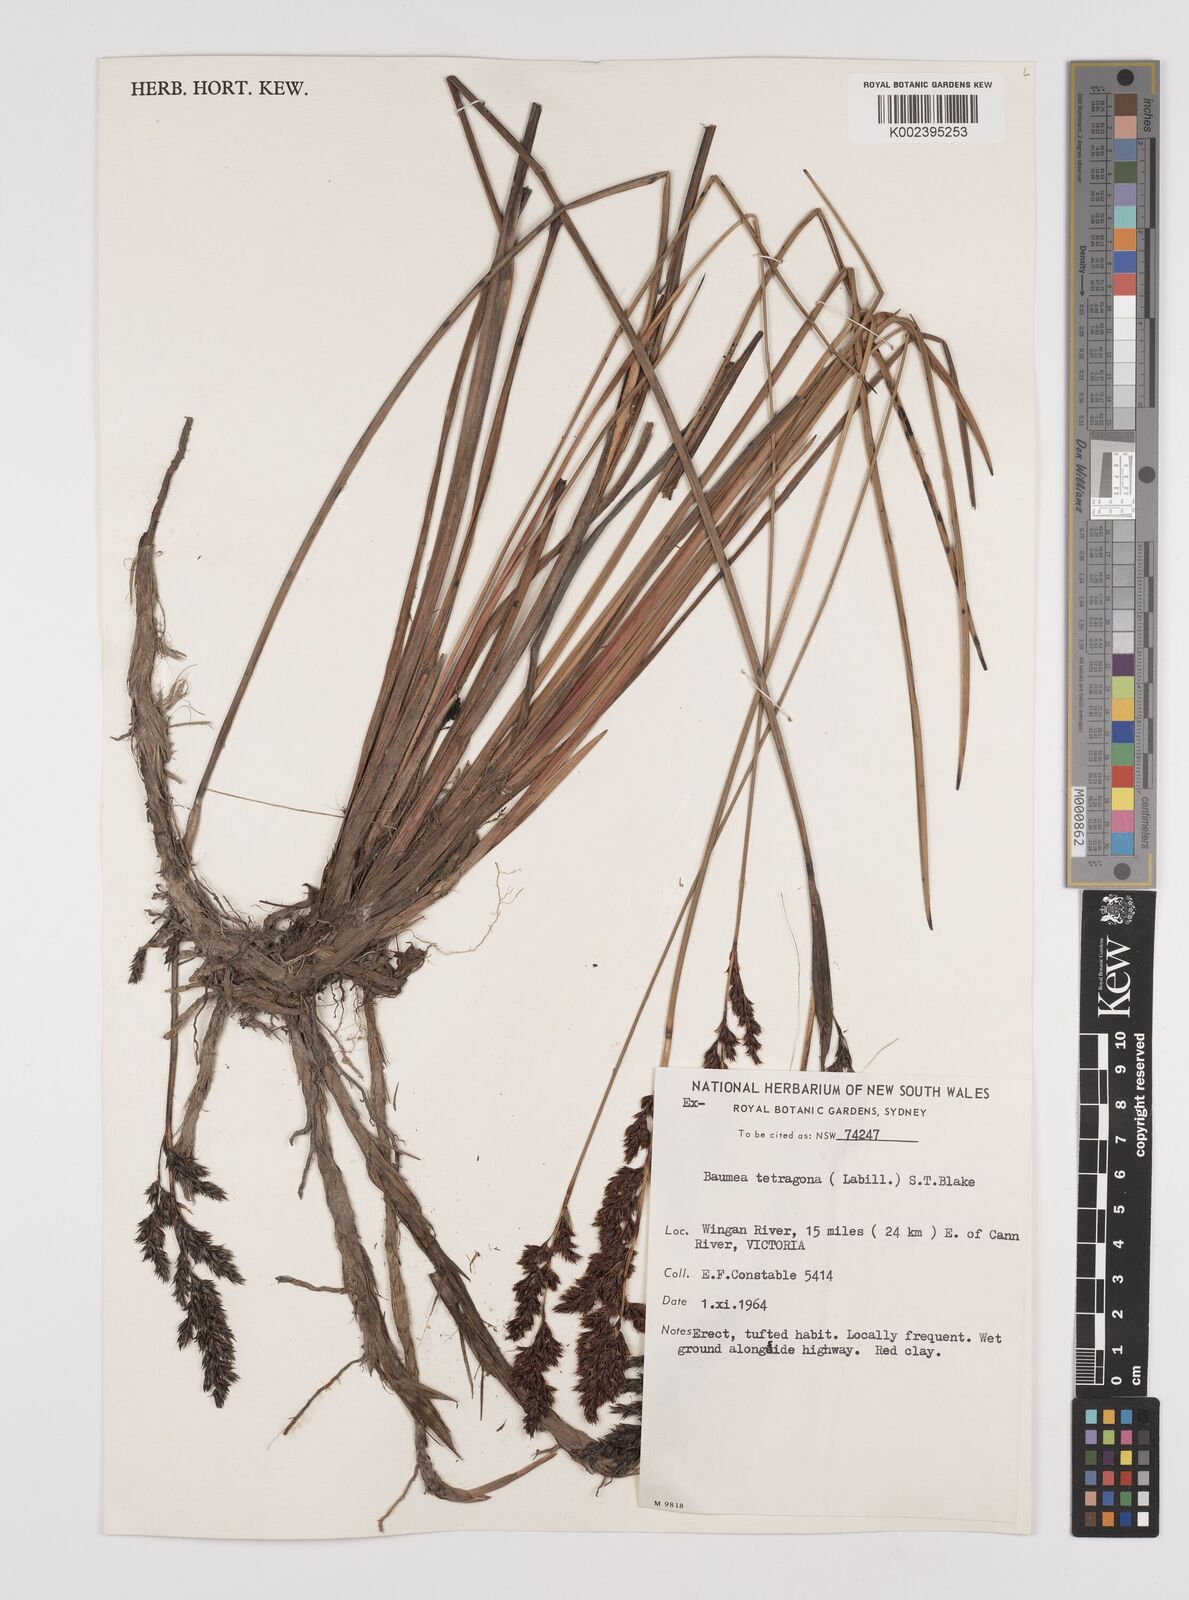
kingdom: Plantae
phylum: Tracheophyta
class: Liliopsida
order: Poales
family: Cyperaceae
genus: Machaerina
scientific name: Machaerina tetragona
